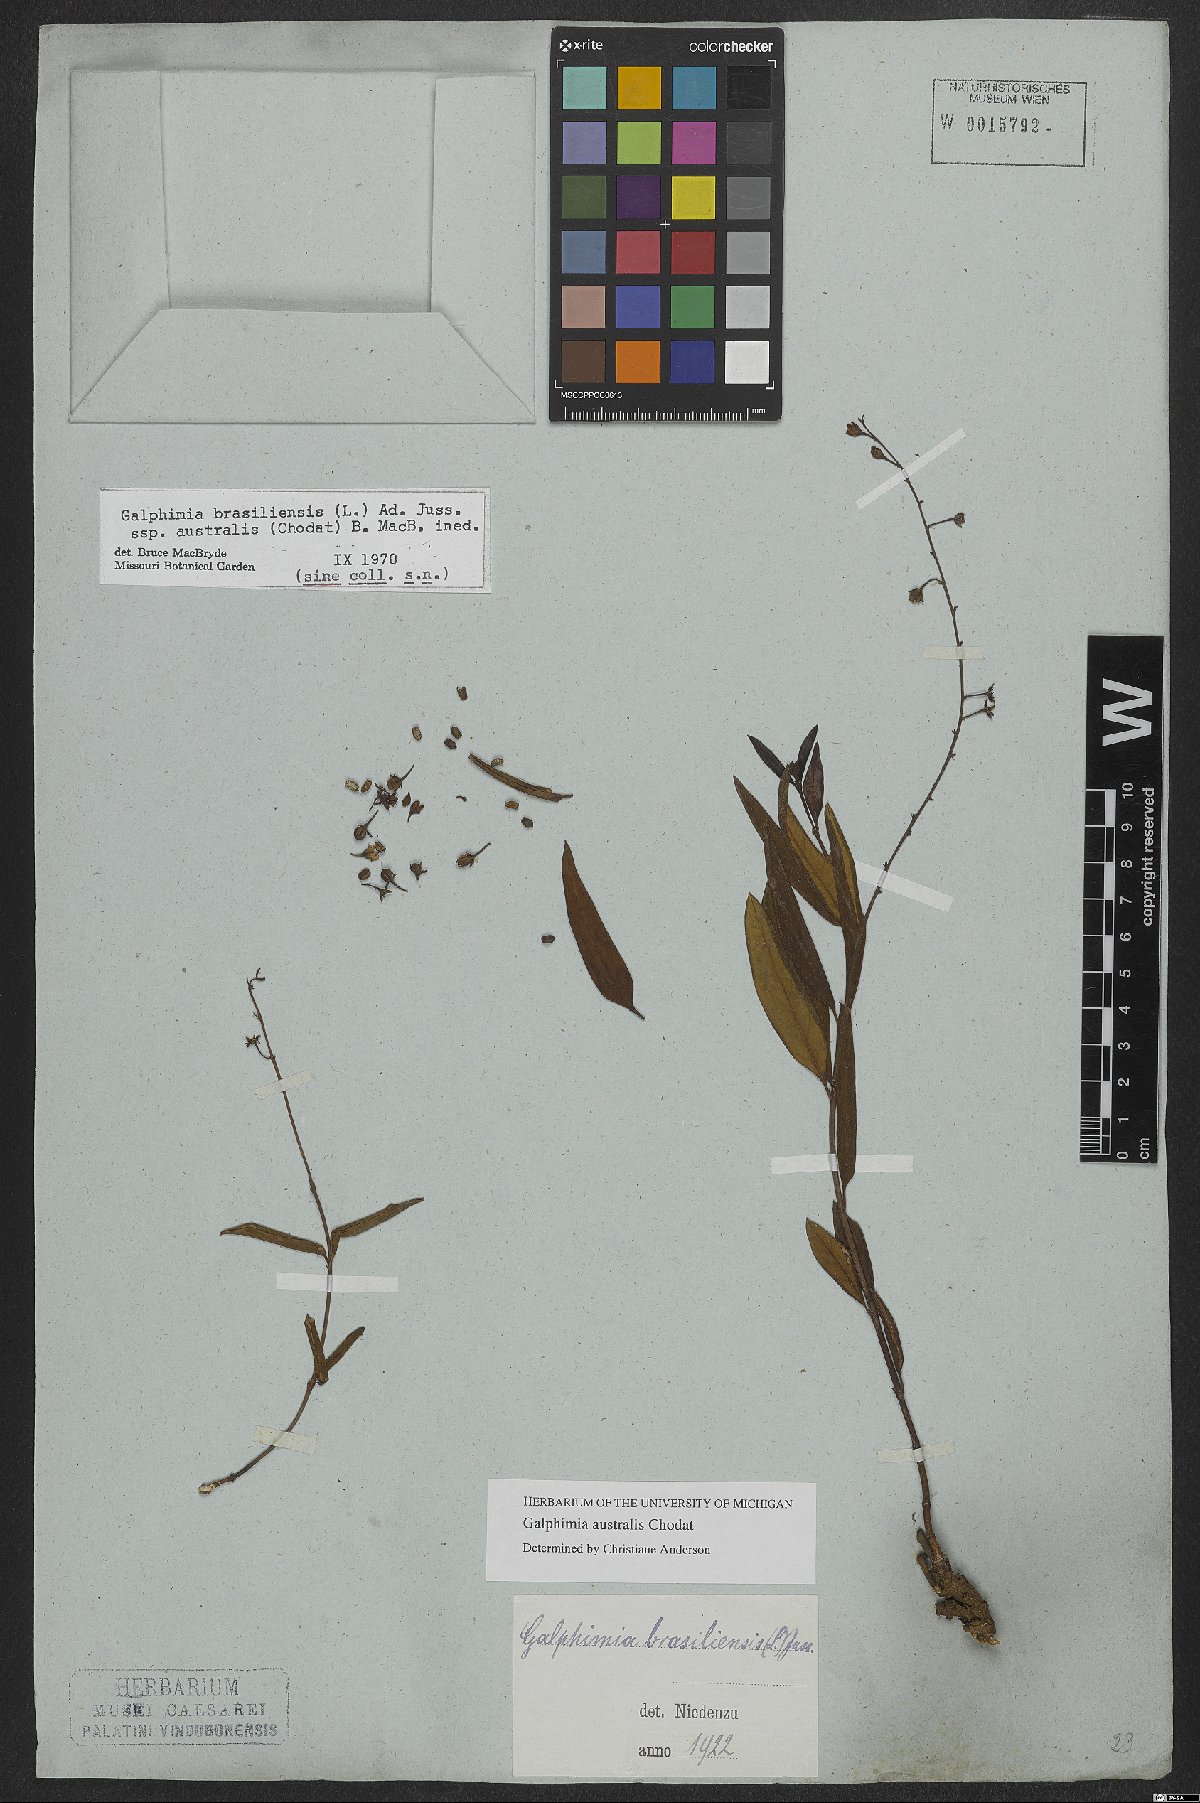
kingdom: Plantae
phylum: Tracheophyta
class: Magnoliopsida
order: Malpighiales
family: Malpighiaceae
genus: Galphimia
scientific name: Galphimia australis
